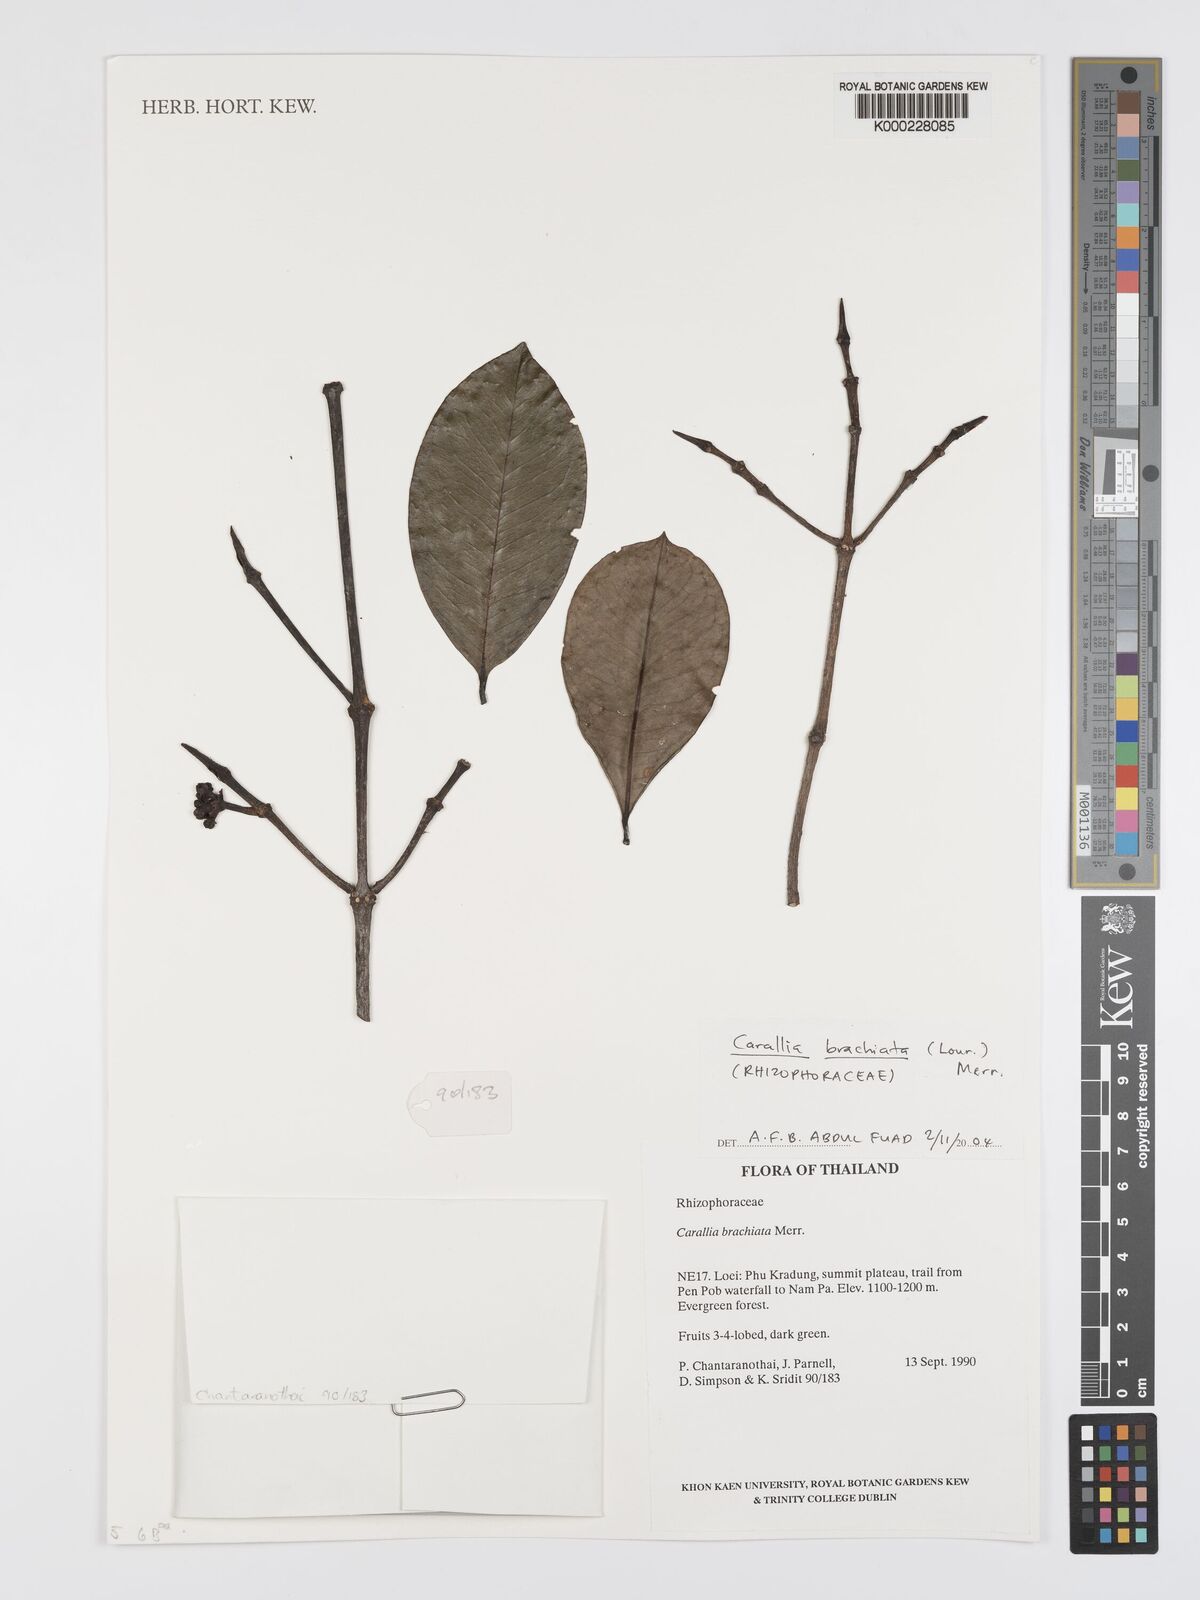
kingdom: Plantae
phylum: Tracheophyta
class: Magnoliopsida
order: Malpighiales
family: Rhizophoraceae
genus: Carallia
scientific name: Carallia brachiata
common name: Carallawood
